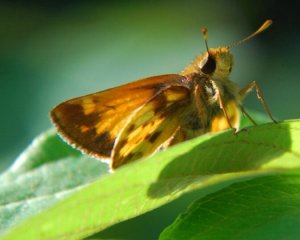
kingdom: Animalia
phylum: Arthropoda
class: Insecta
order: Lepidoptera
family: Hesperiidae
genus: Lon
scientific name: Lon zabulon
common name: Zabulon Skipper
